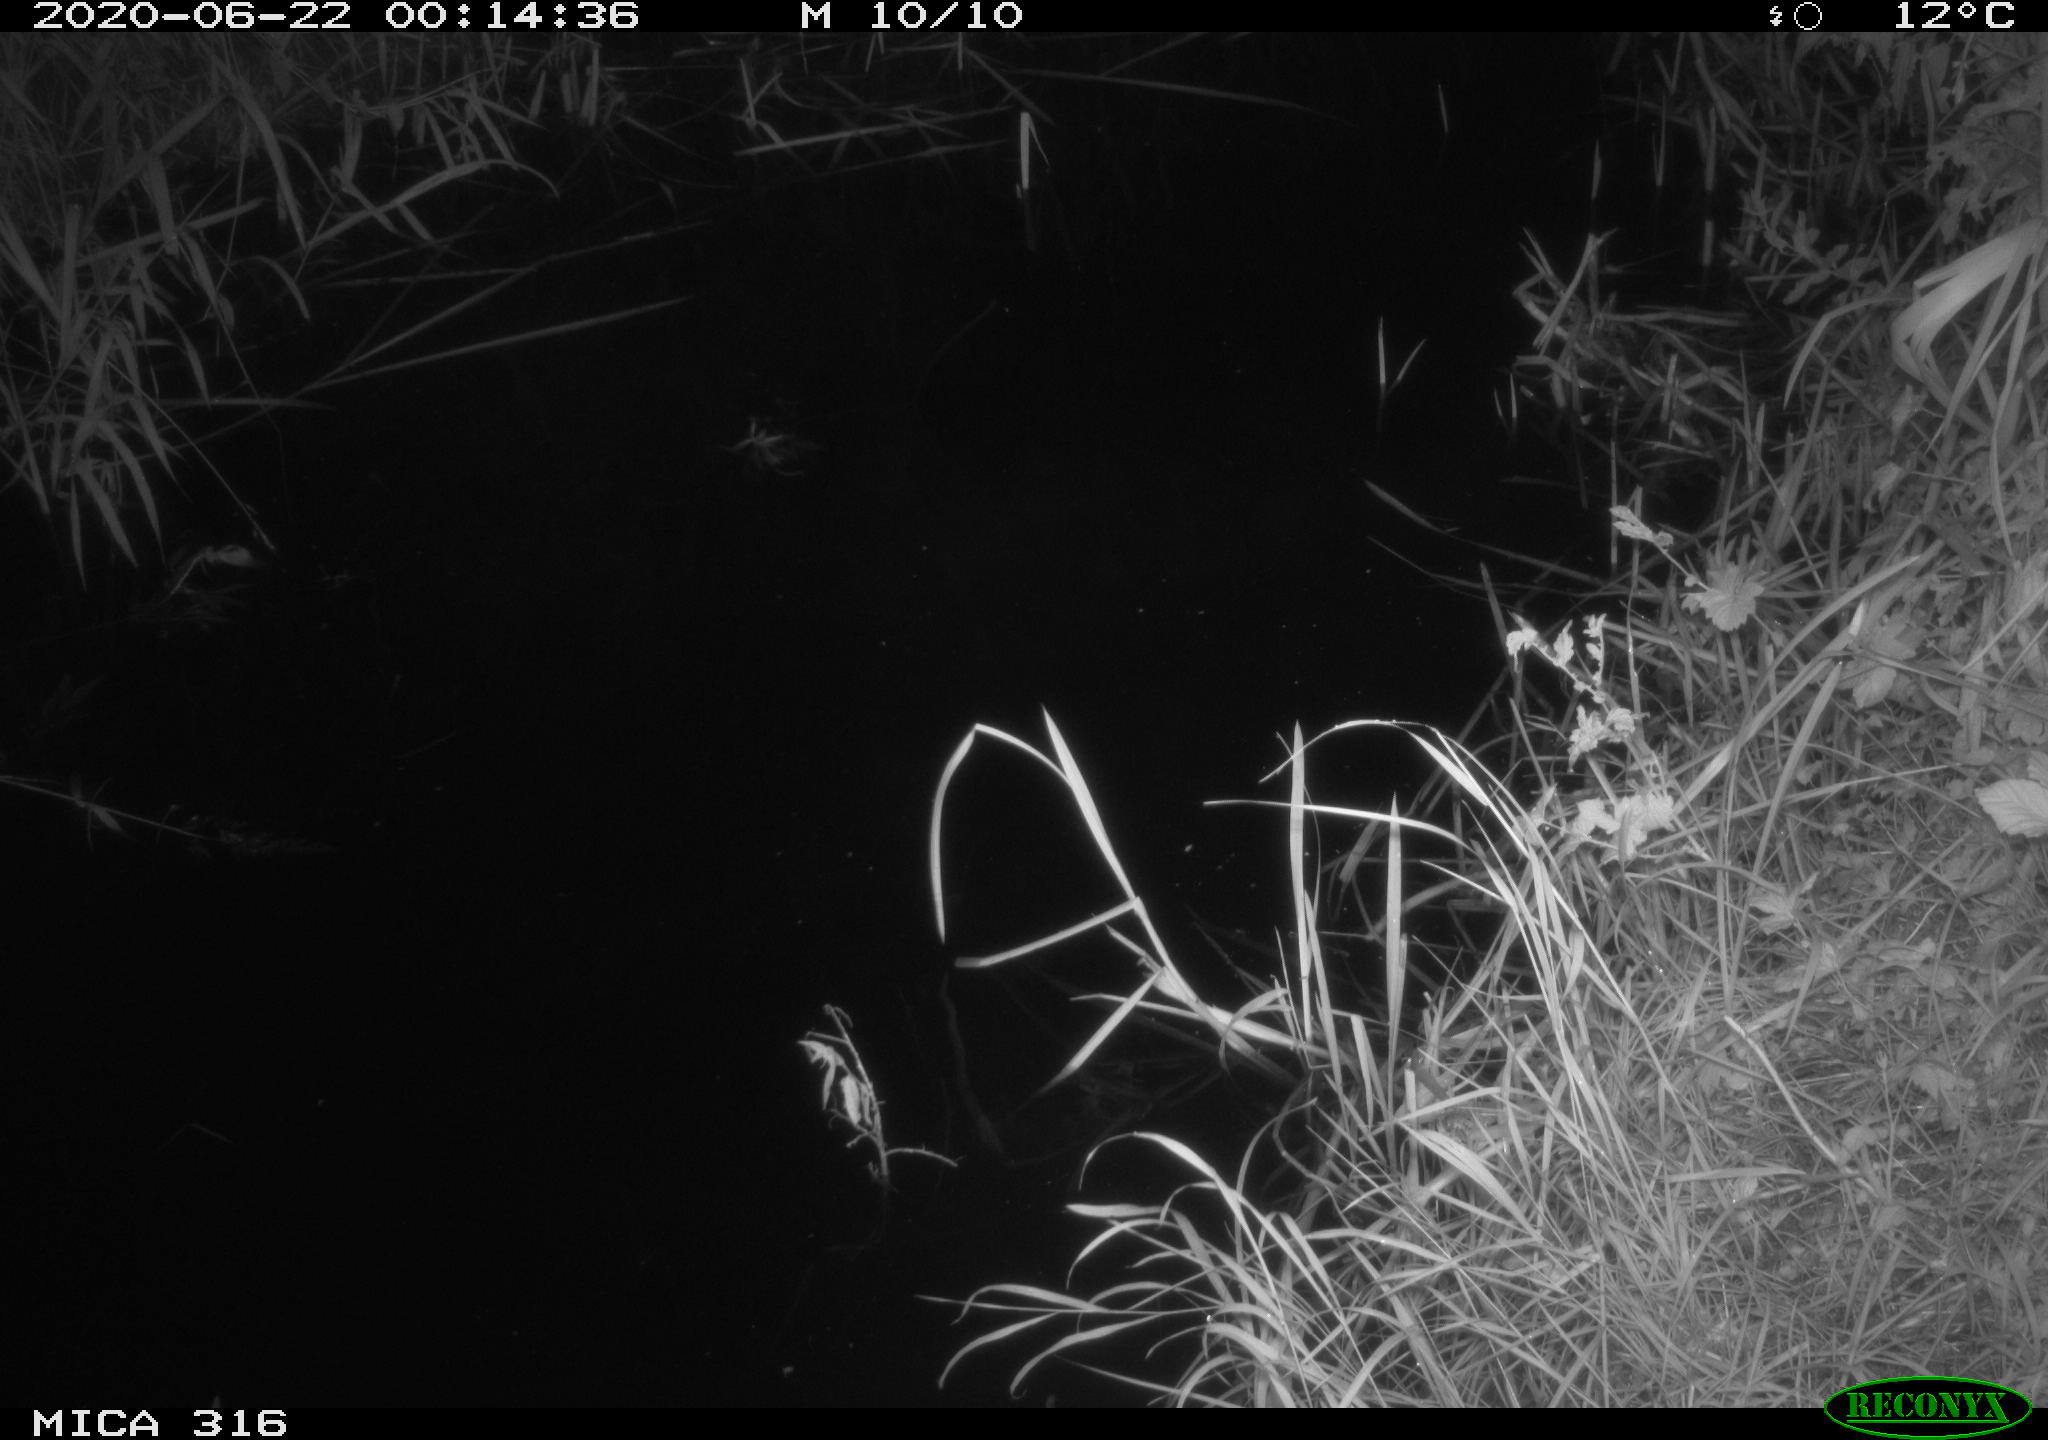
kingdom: Animalia
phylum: Chordata
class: Aves
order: Anseriformes
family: Anatidae
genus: Anas
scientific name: Anas platyrhynchos
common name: Mallard
